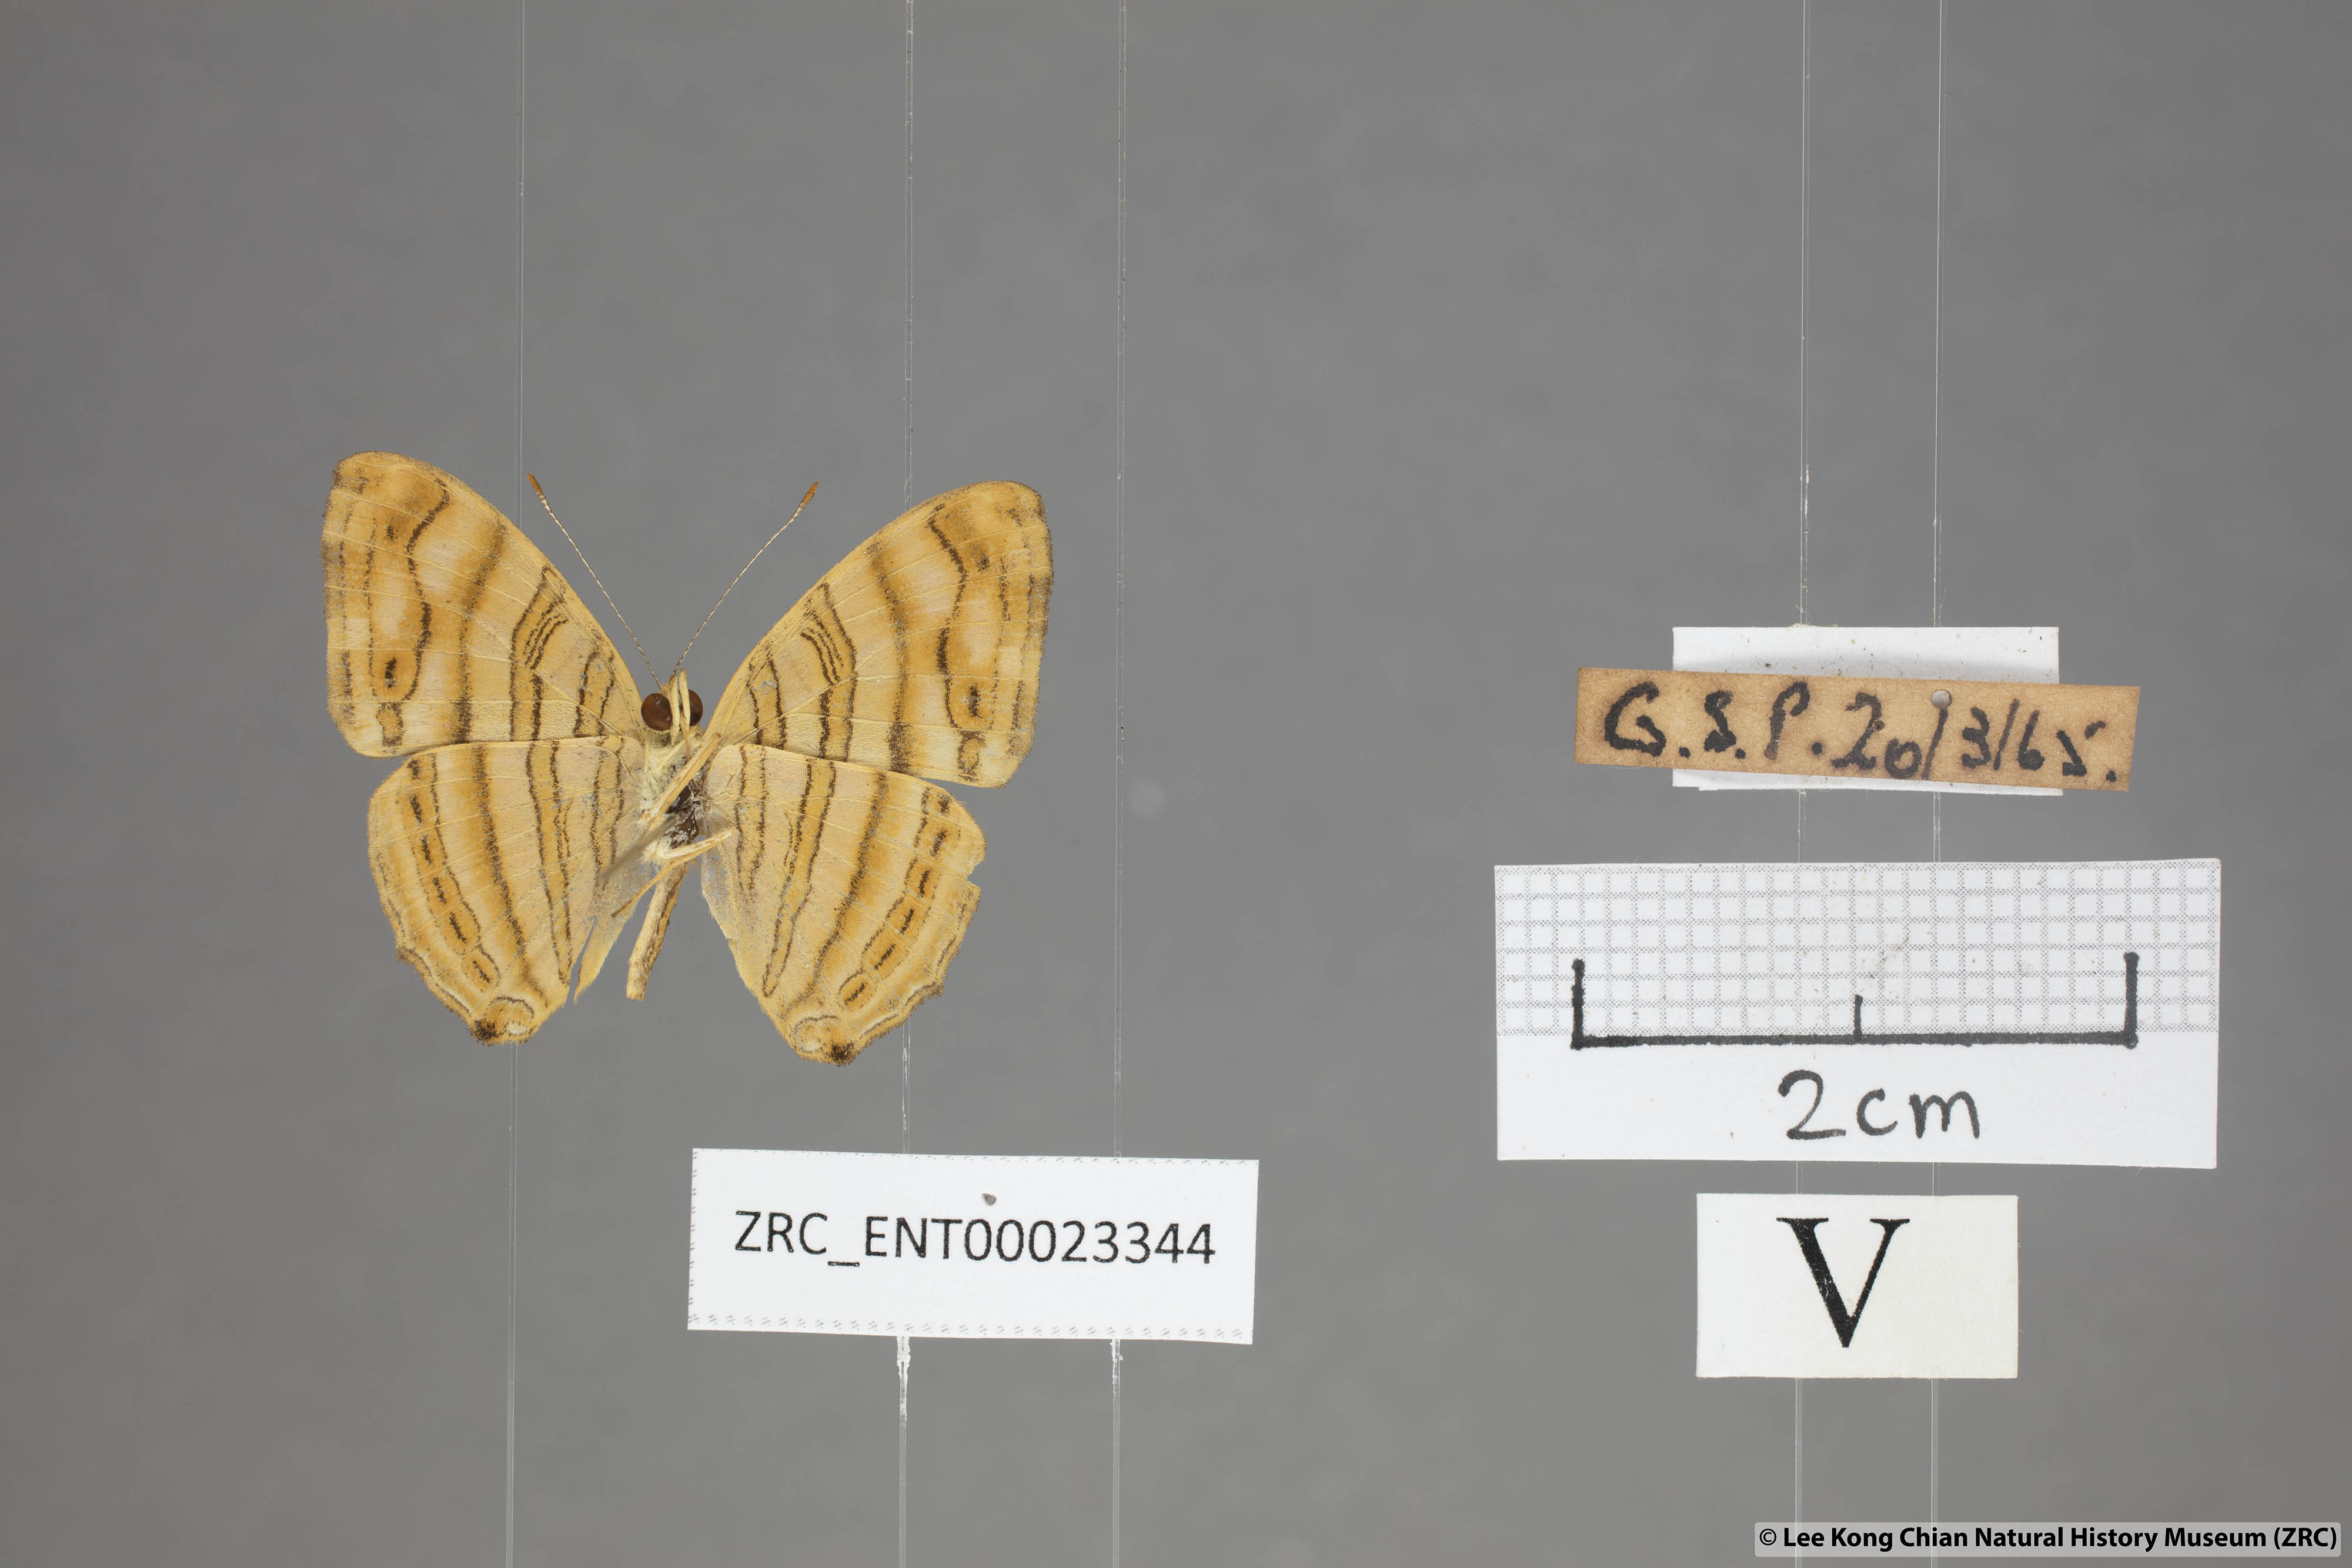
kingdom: Animalia
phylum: Arthropoda
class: Insecta
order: Lepidoptera
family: Nymphalidae
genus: Chersonesia
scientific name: Chersonesia intermedia
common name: Intermediate maplet
